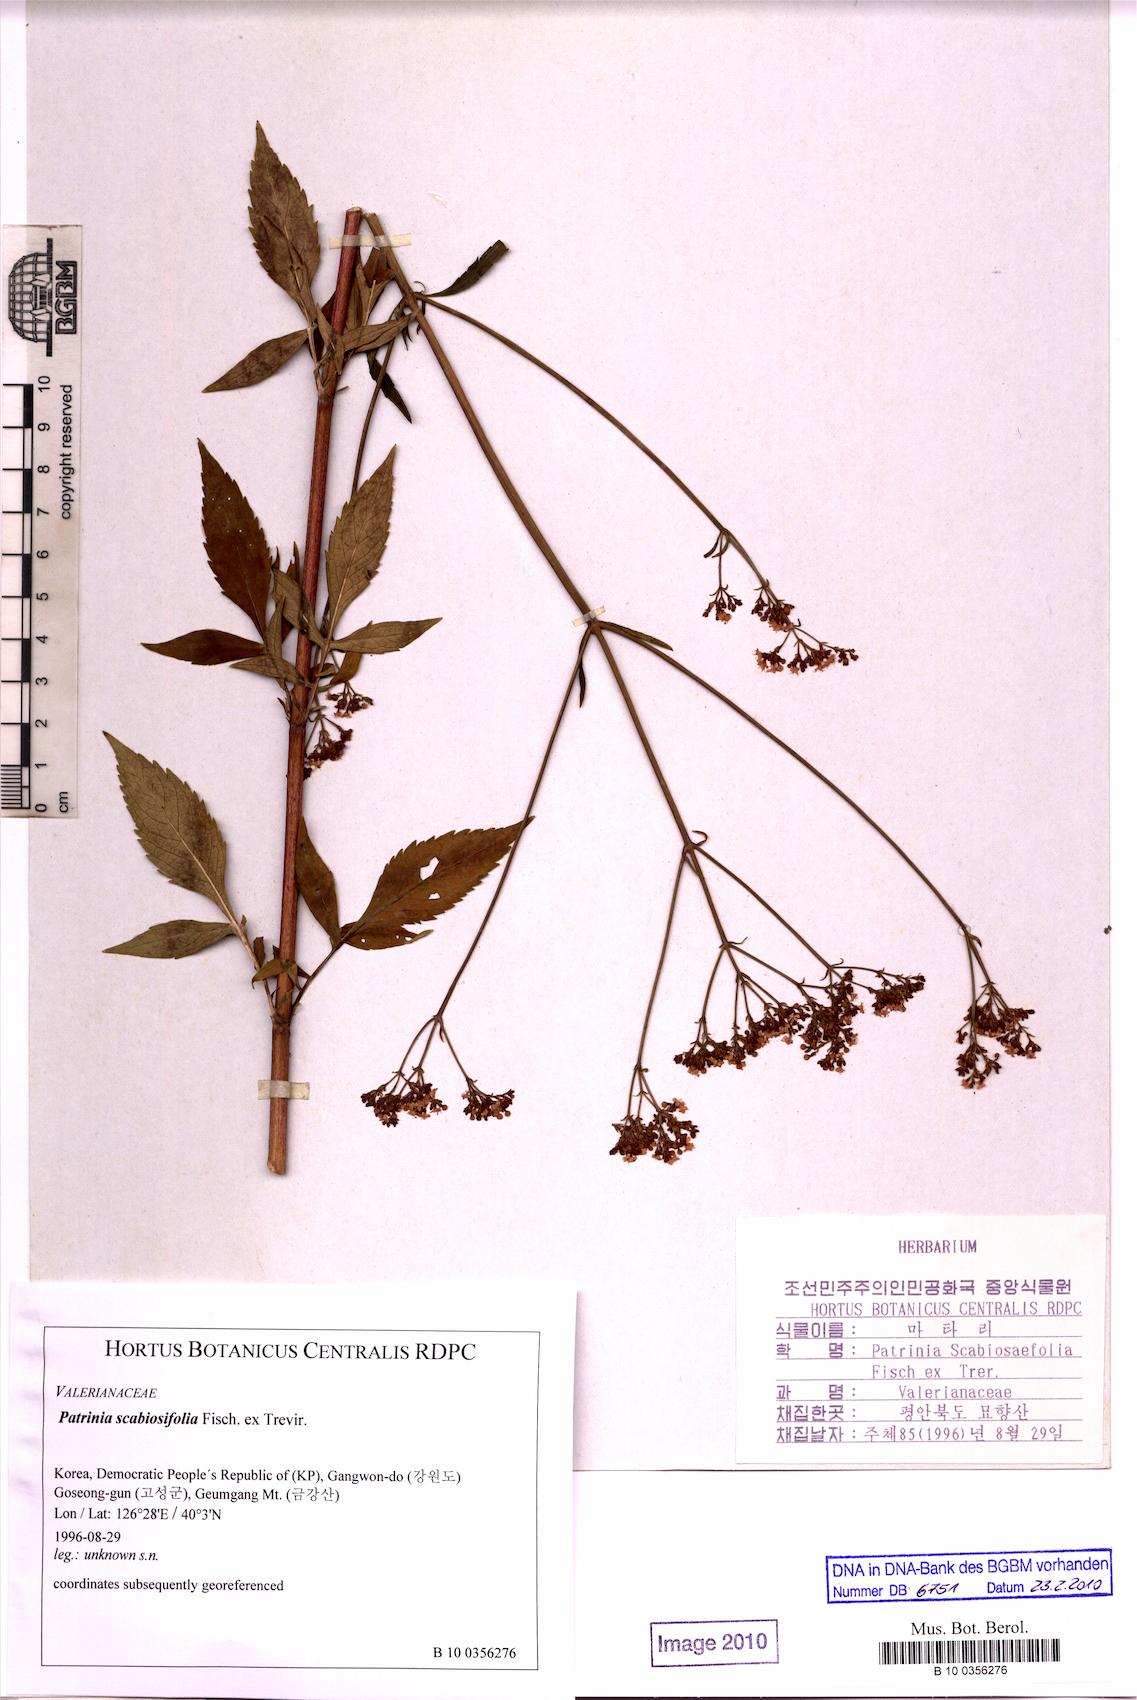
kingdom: Plantae
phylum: Tracheophyta
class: Magnoliopsida
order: Dipsacales
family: Caprifoliaceae
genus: Patrinia
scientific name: Patrinia scabiosifolia
